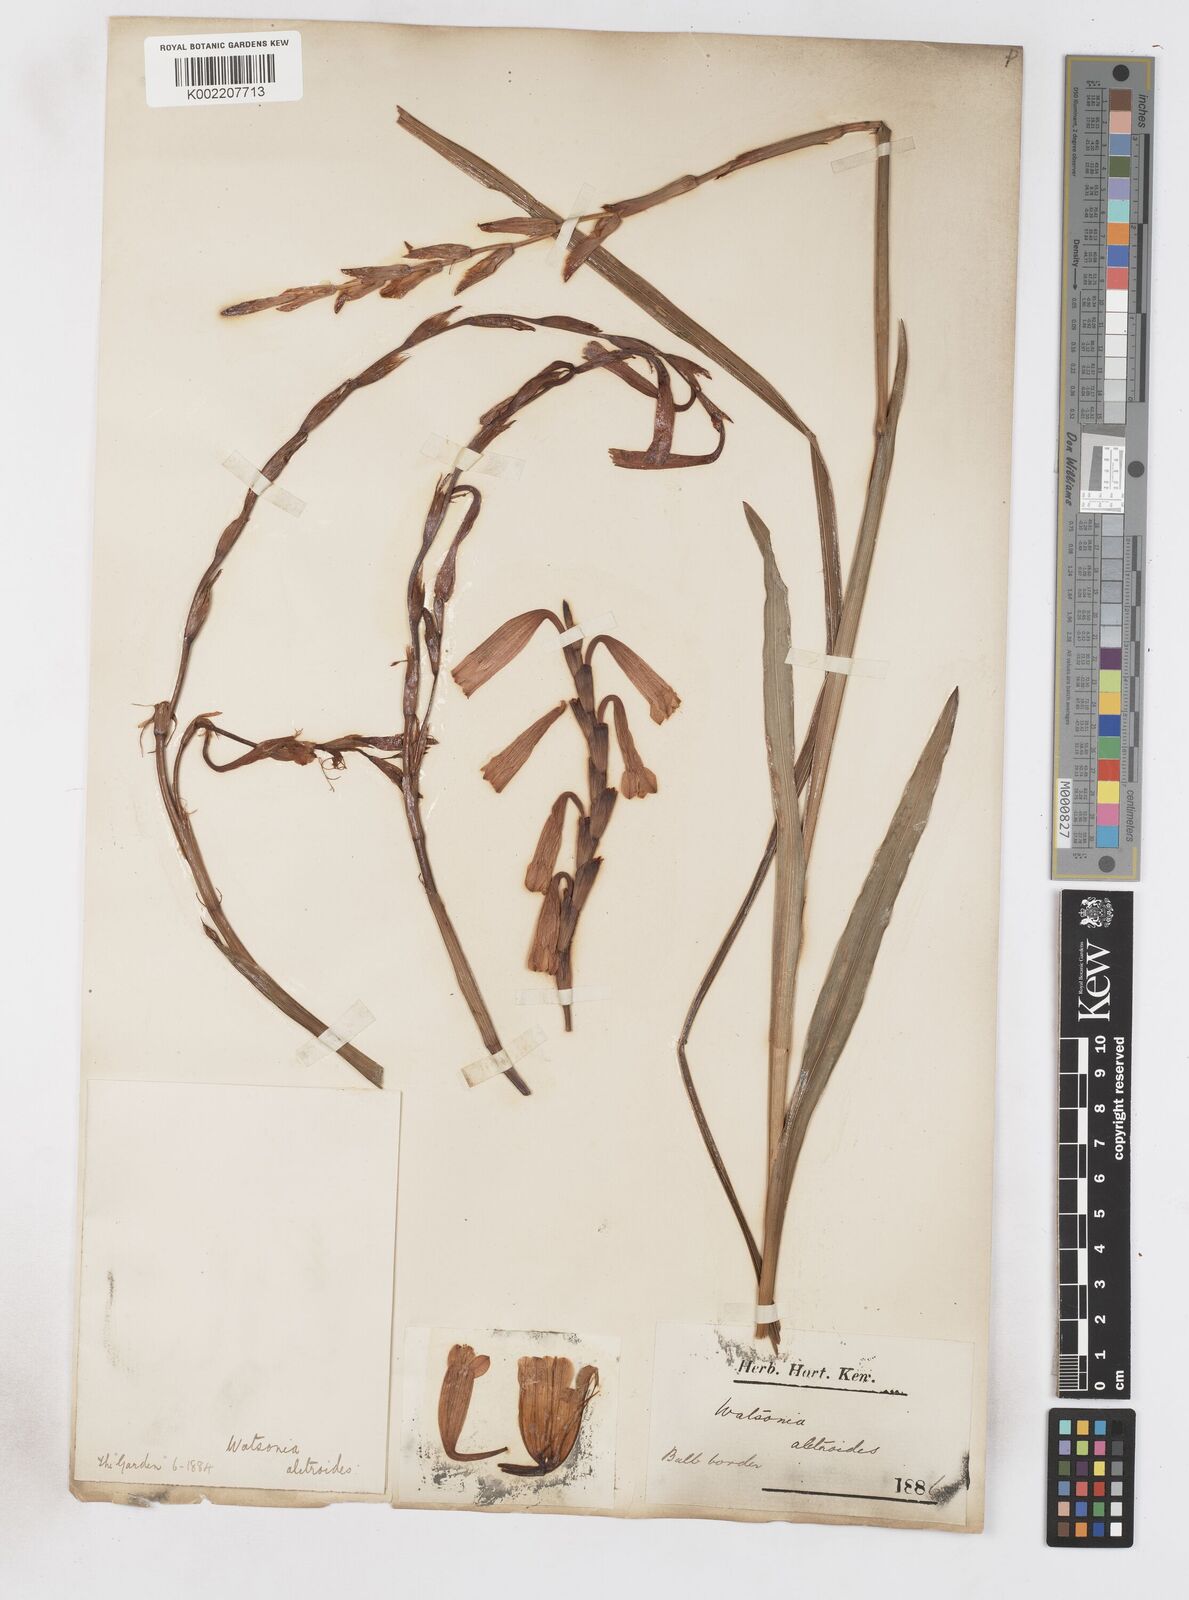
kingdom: Plantae
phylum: Tracheophyta
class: Liliopsida
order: Asparagales
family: Iridaceae
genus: Watsonia
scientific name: Watsonia aletroides
